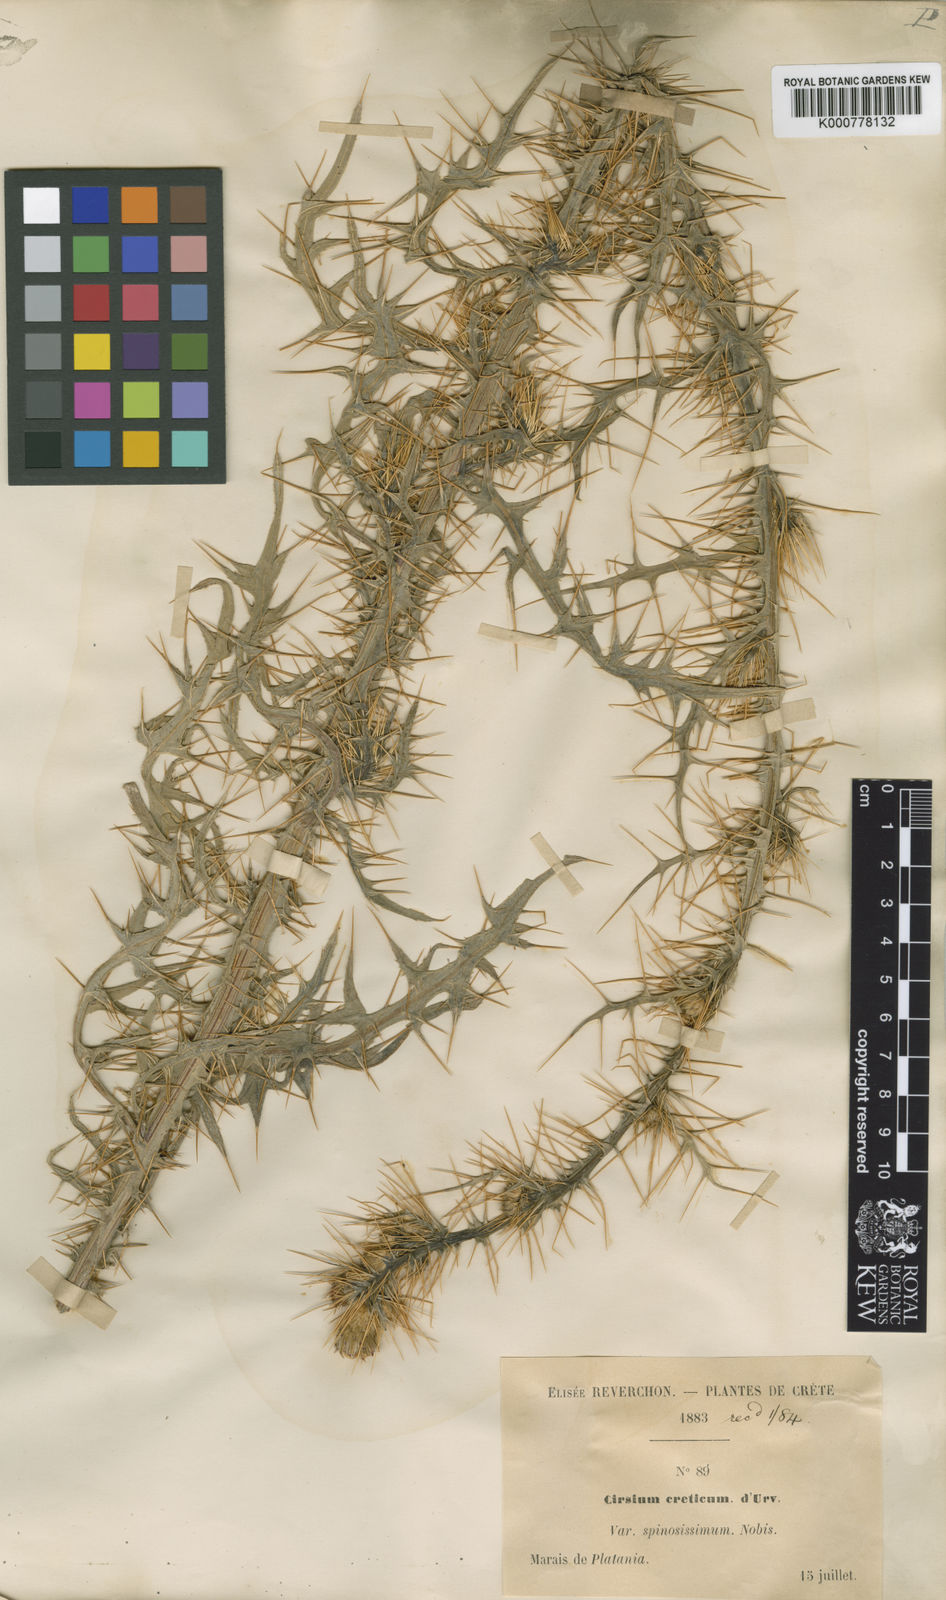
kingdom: Plantae
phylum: Tracheophyta
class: Magnoliopsida
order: Asterales
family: Asteraceae
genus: Cirsium
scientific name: Cirsium creticum
